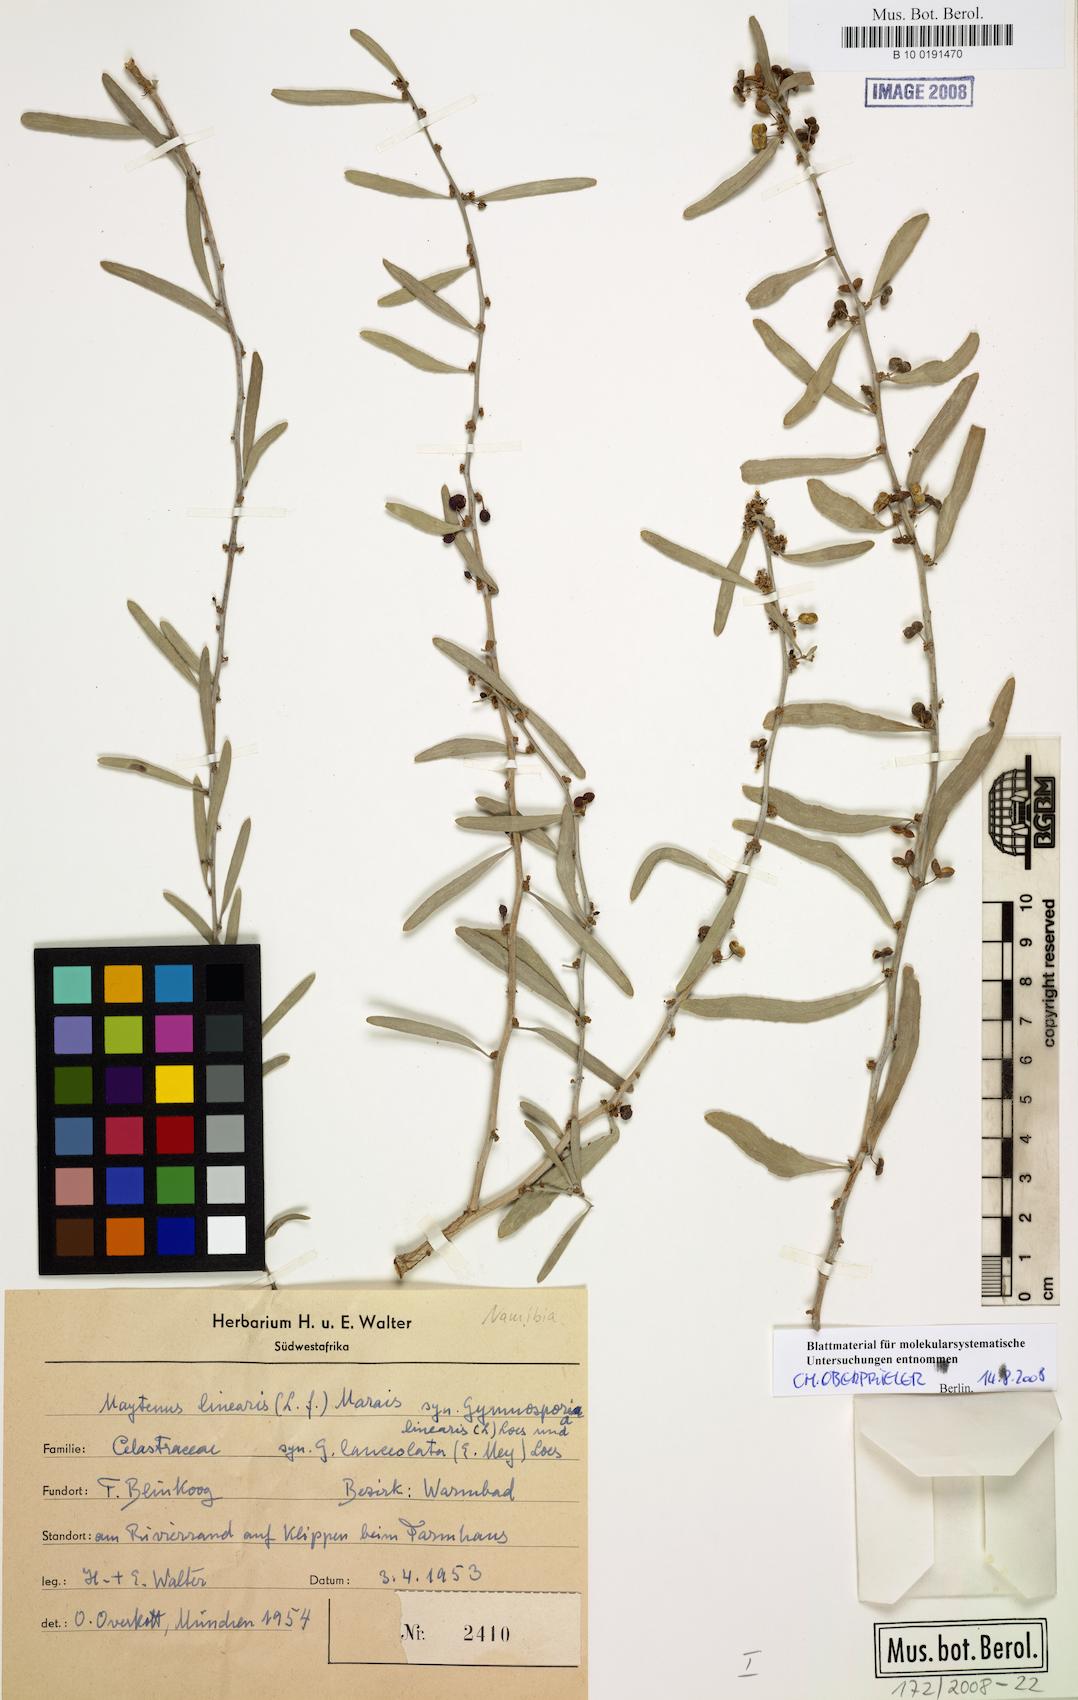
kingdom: Plantae
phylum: Tracheophyta
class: Magnoliopsida
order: Celastrales
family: Celastraceae
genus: Gymnosporia
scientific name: Gymnosporia linearis
